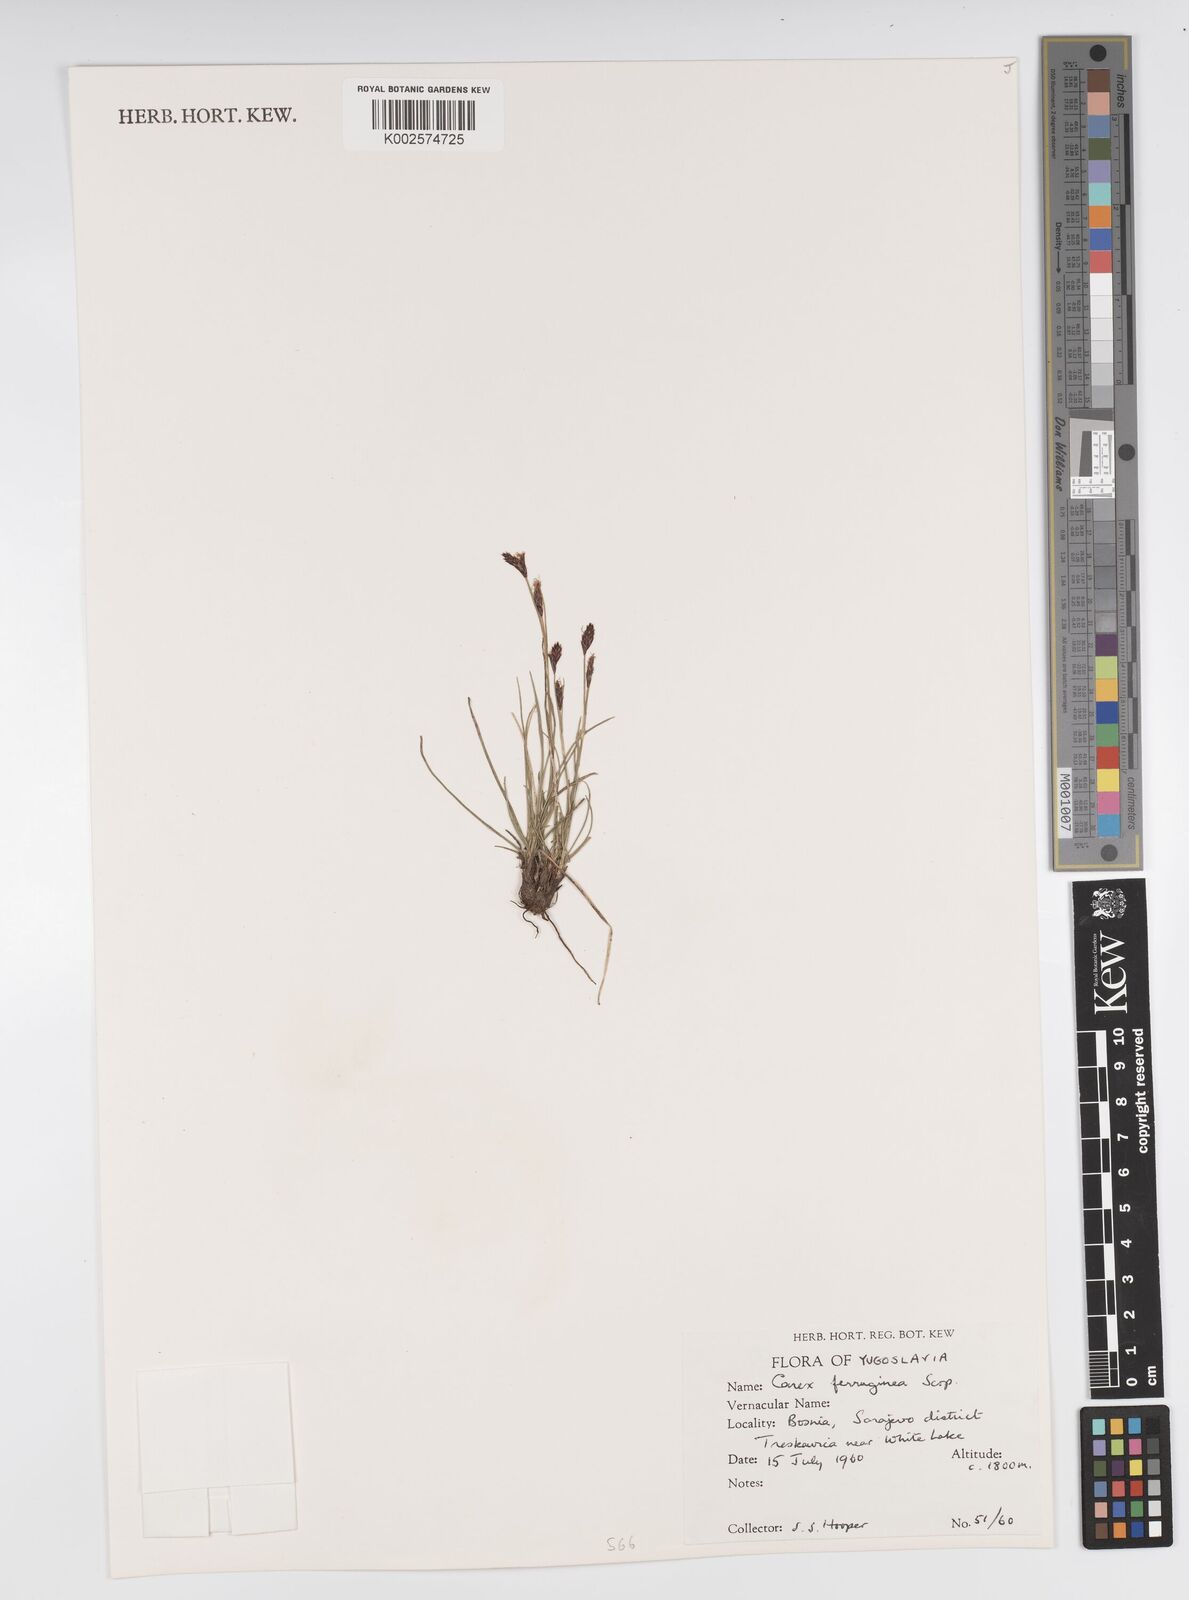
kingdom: Plantae
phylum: Tracheophyta
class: Liliopsida
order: Poales
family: Cyperaceae
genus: Carex
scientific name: Carex ferruginea
